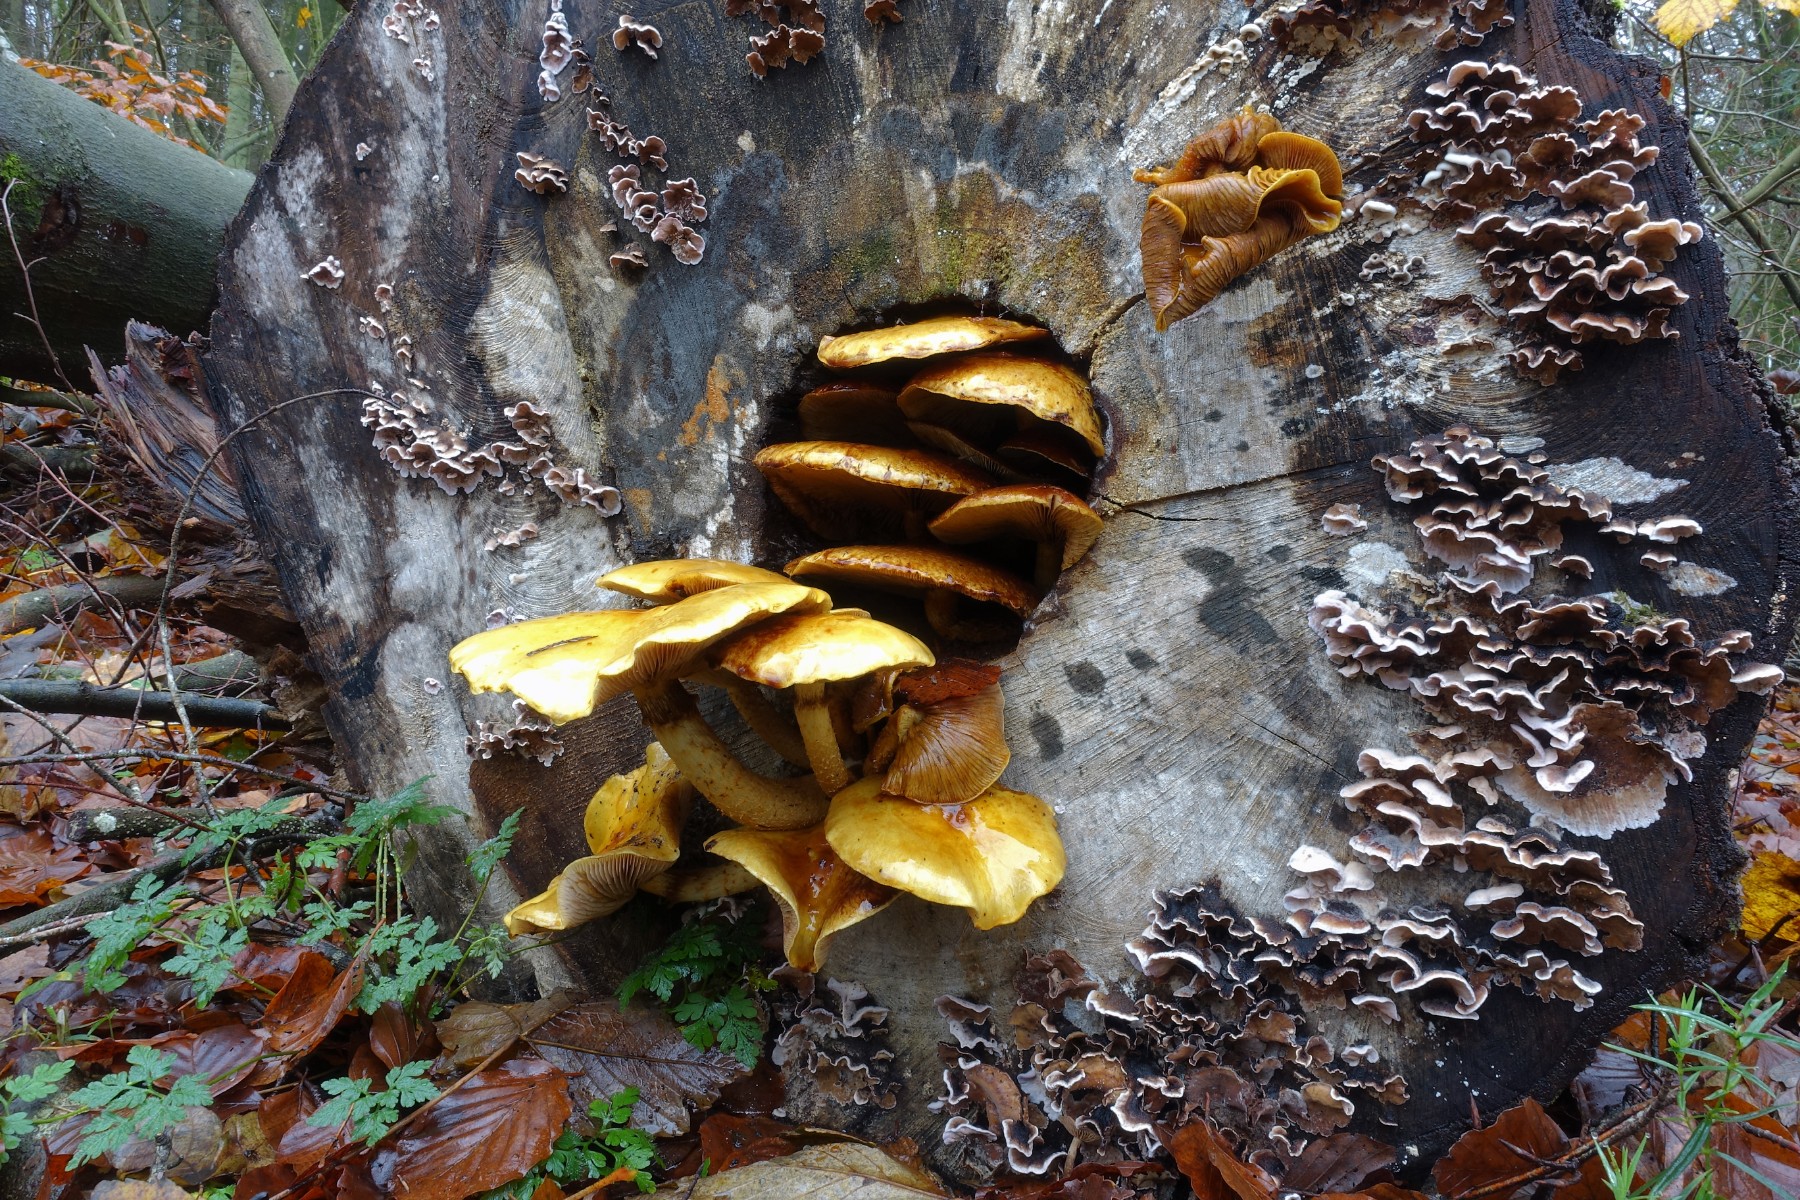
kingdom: Fungi
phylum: Basidiomycota
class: Agaricomycetes
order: Agaricales
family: Strophariaceae
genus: Pholiota
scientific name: Pholiota adiposa
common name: højtsiddende skælhat
